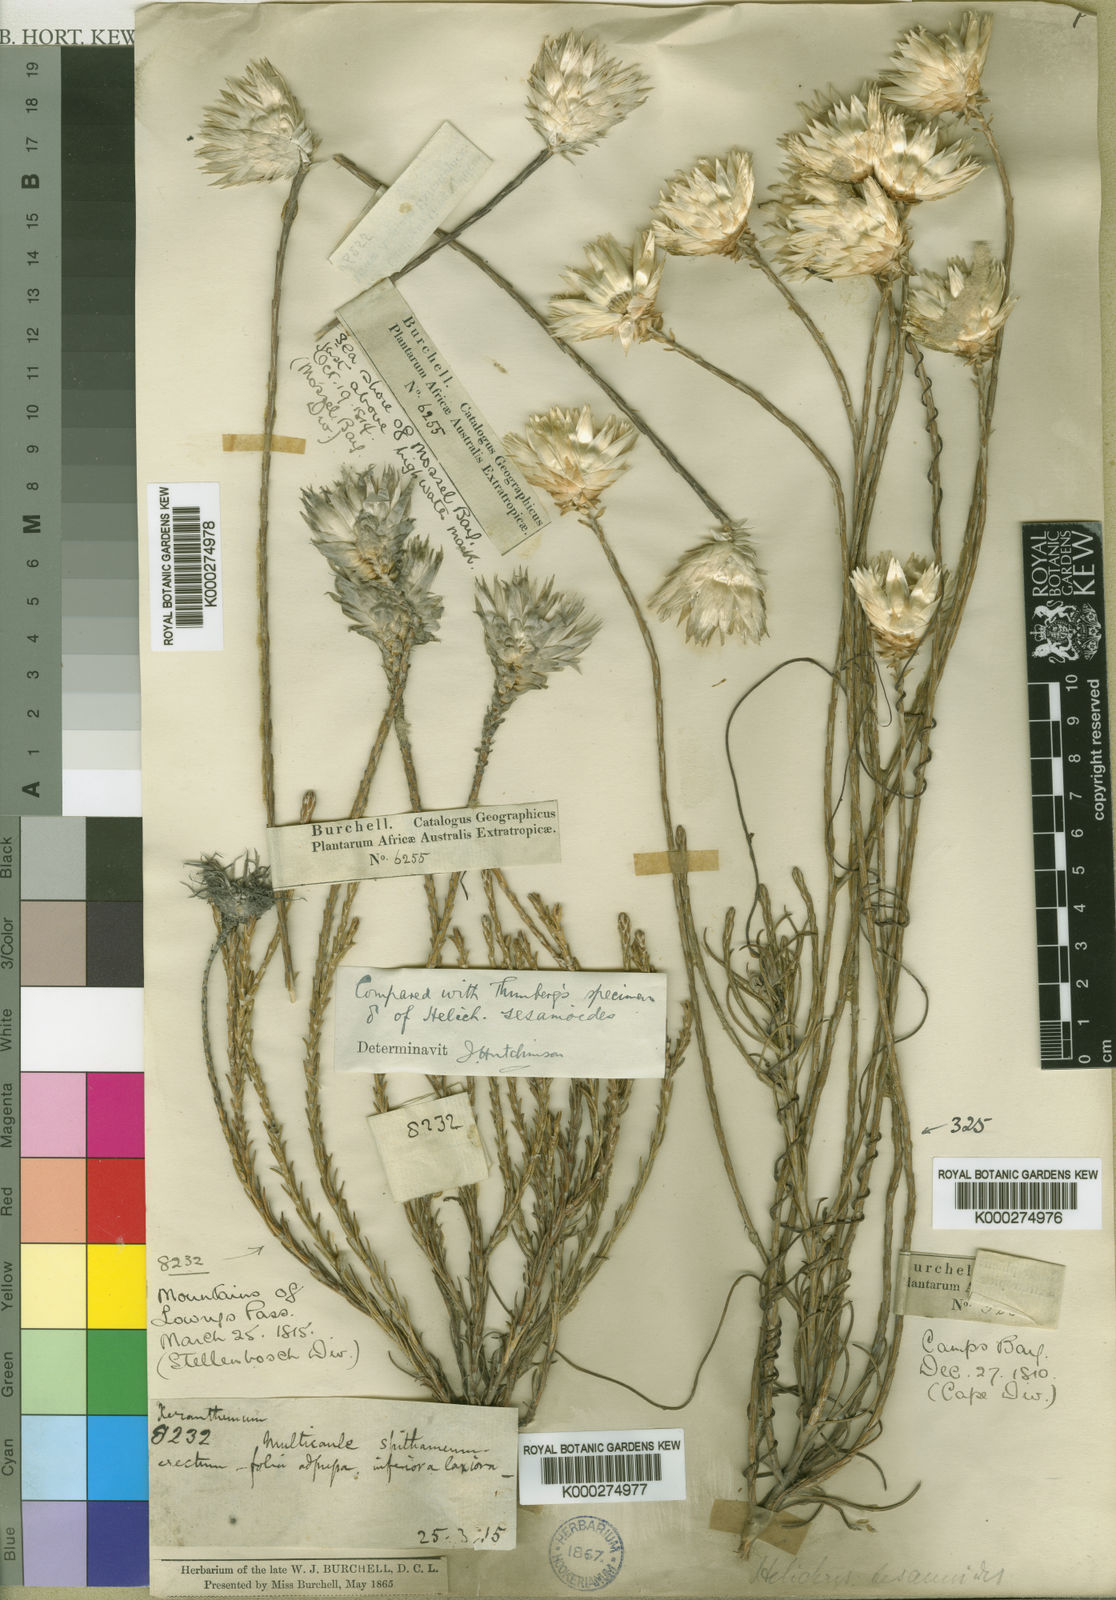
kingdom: Plantae
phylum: Tracheophyta
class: Magnoliopsida
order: Asterales
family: Asteraceae
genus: Edmondia
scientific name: Edmondia sesamoides
